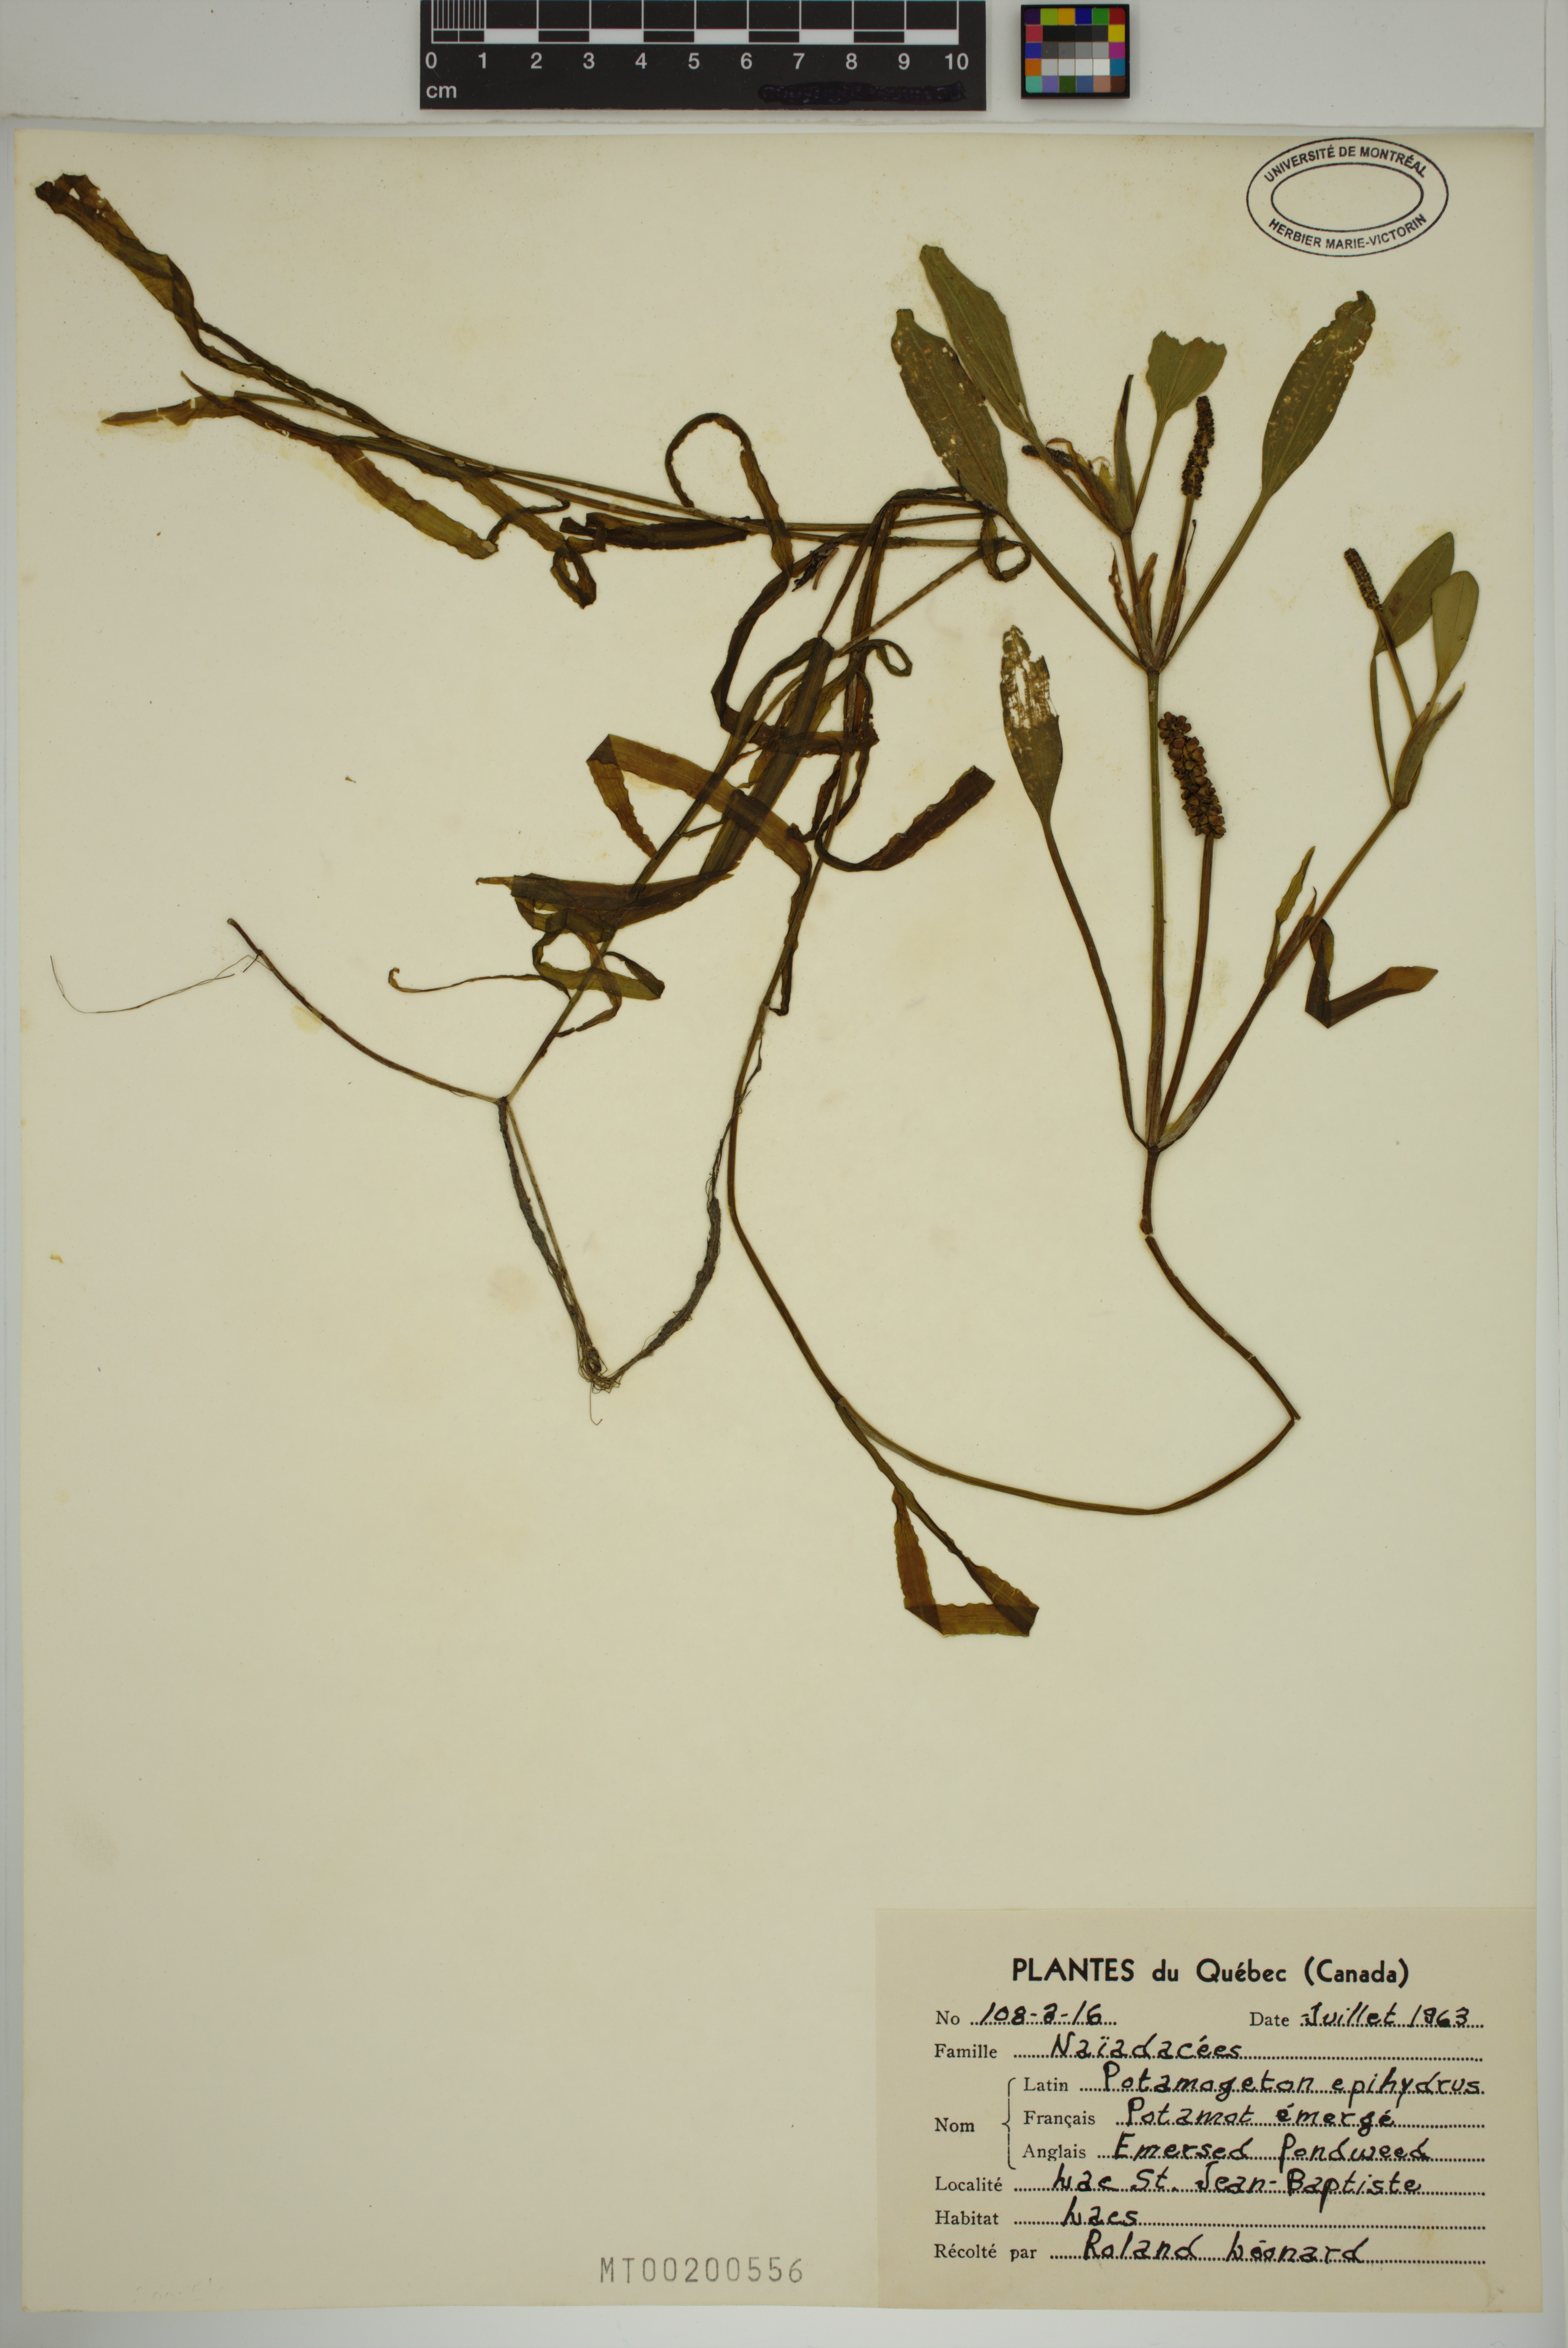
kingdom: Plantae
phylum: Tracheophyta
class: Liliopsida
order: Alismatales
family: Potamogetonaceae
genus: Potamogeton
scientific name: Potamogeton epihydrus
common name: American pondweed
